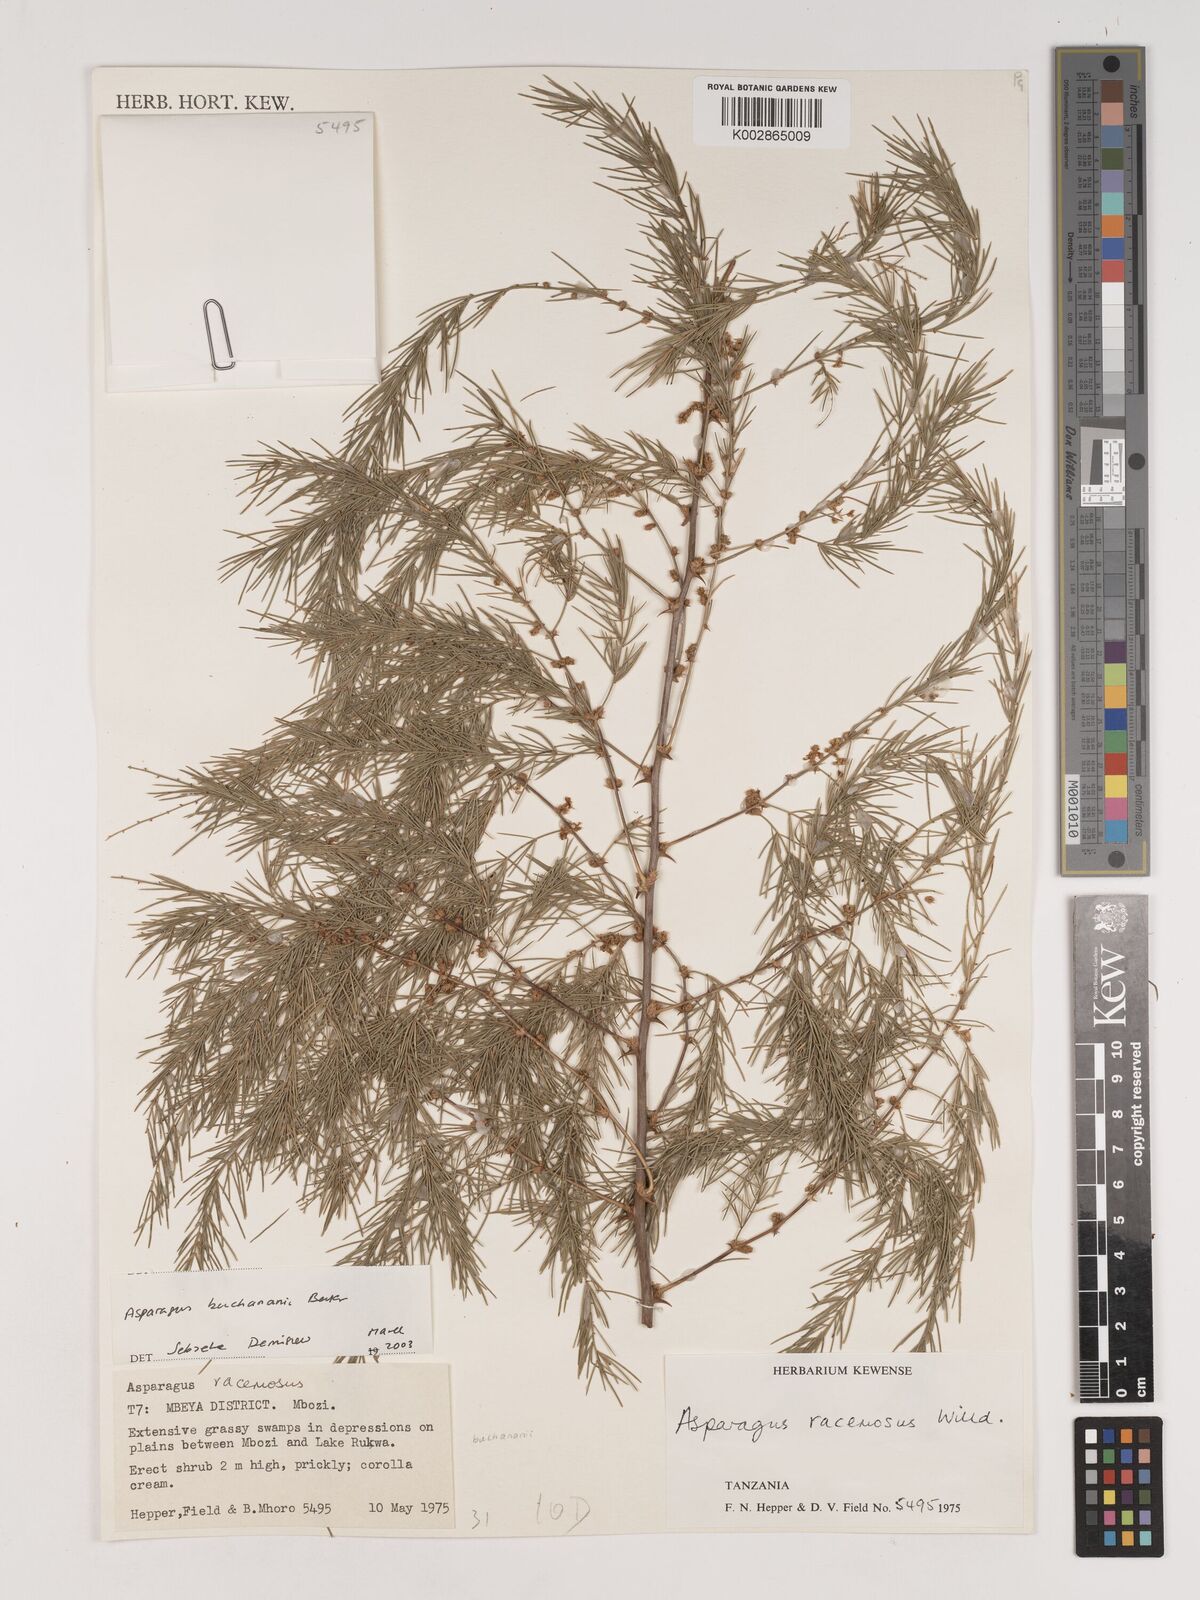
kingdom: Plantae
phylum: Tracheophyta
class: Liliopsida
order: Asparagales
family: Asparagaceae
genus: Asparagus
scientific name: Asparagus buchananii
